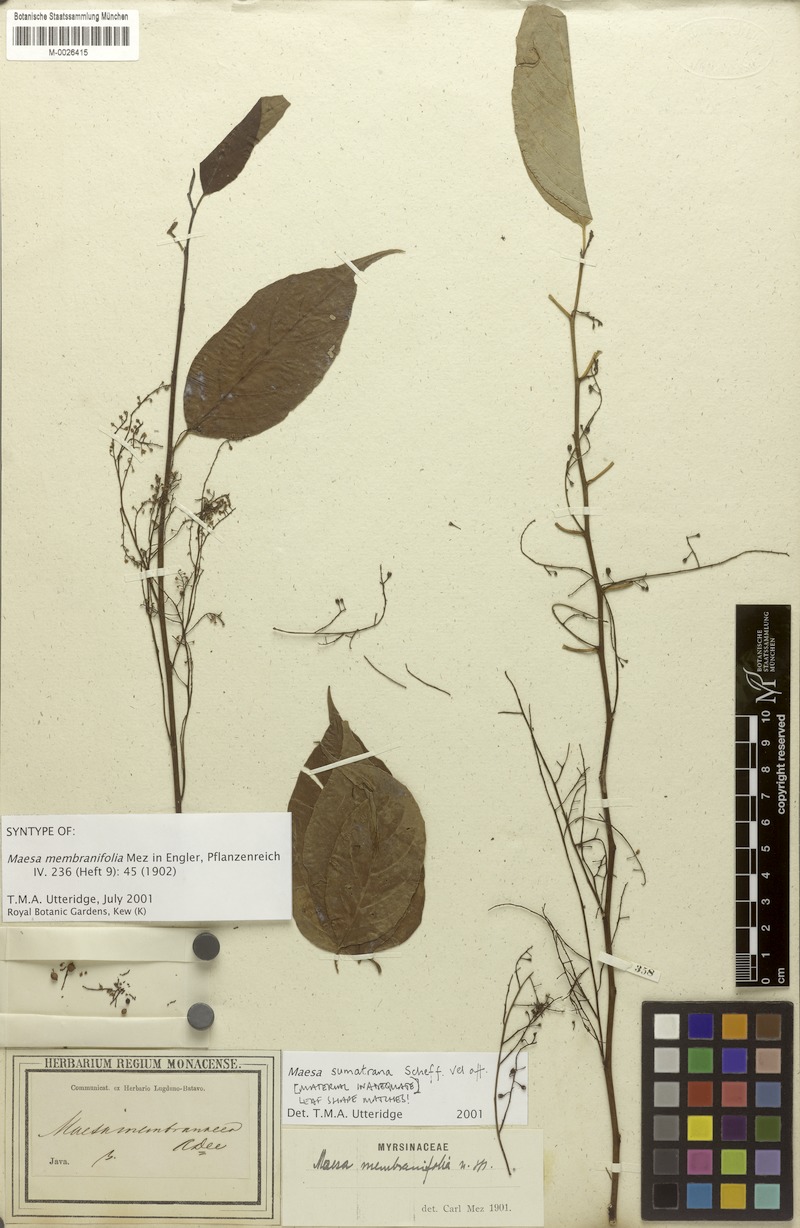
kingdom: Plantae
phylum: Tracheophyta
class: Magnoliopsida
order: Ericales
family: Primulaceae
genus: Maesa
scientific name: Maesa sumatrana
